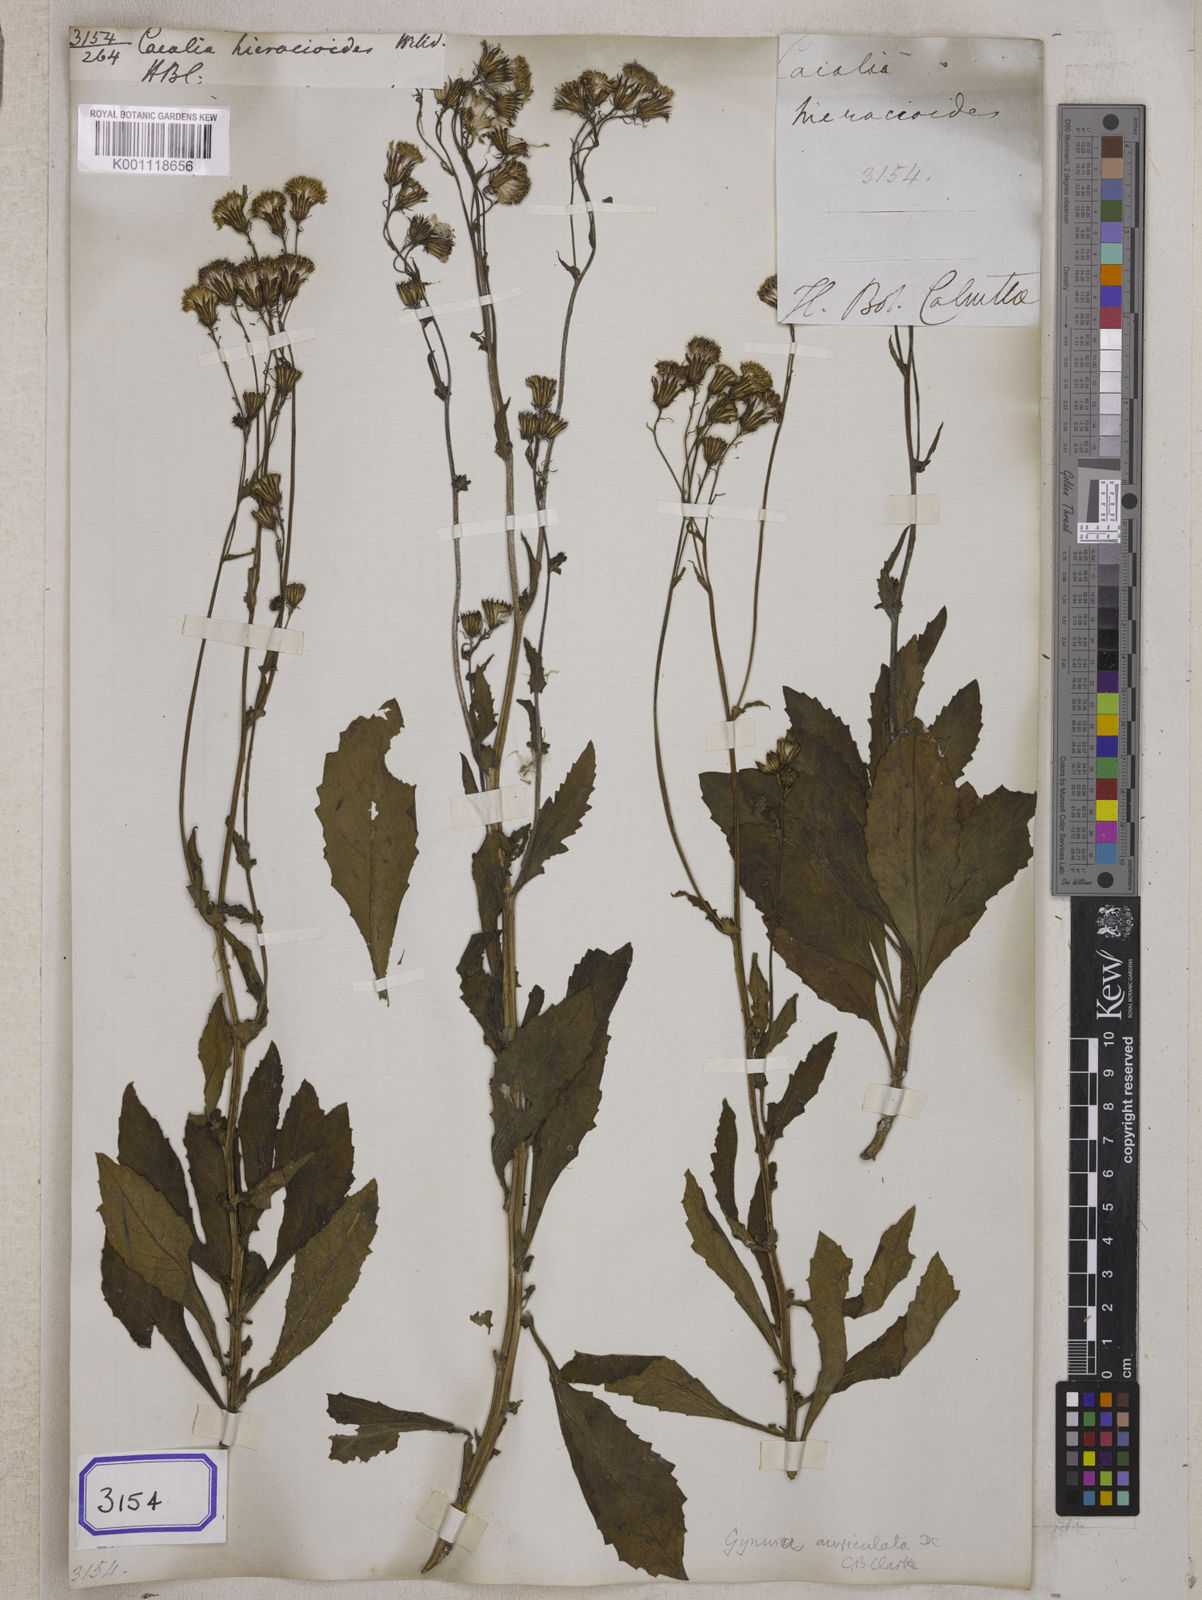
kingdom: Plantae
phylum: Tracheophyta
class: Magnoliopsida
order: Asterales
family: Asteraceae
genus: Gynura
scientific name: Gynura divaricata
